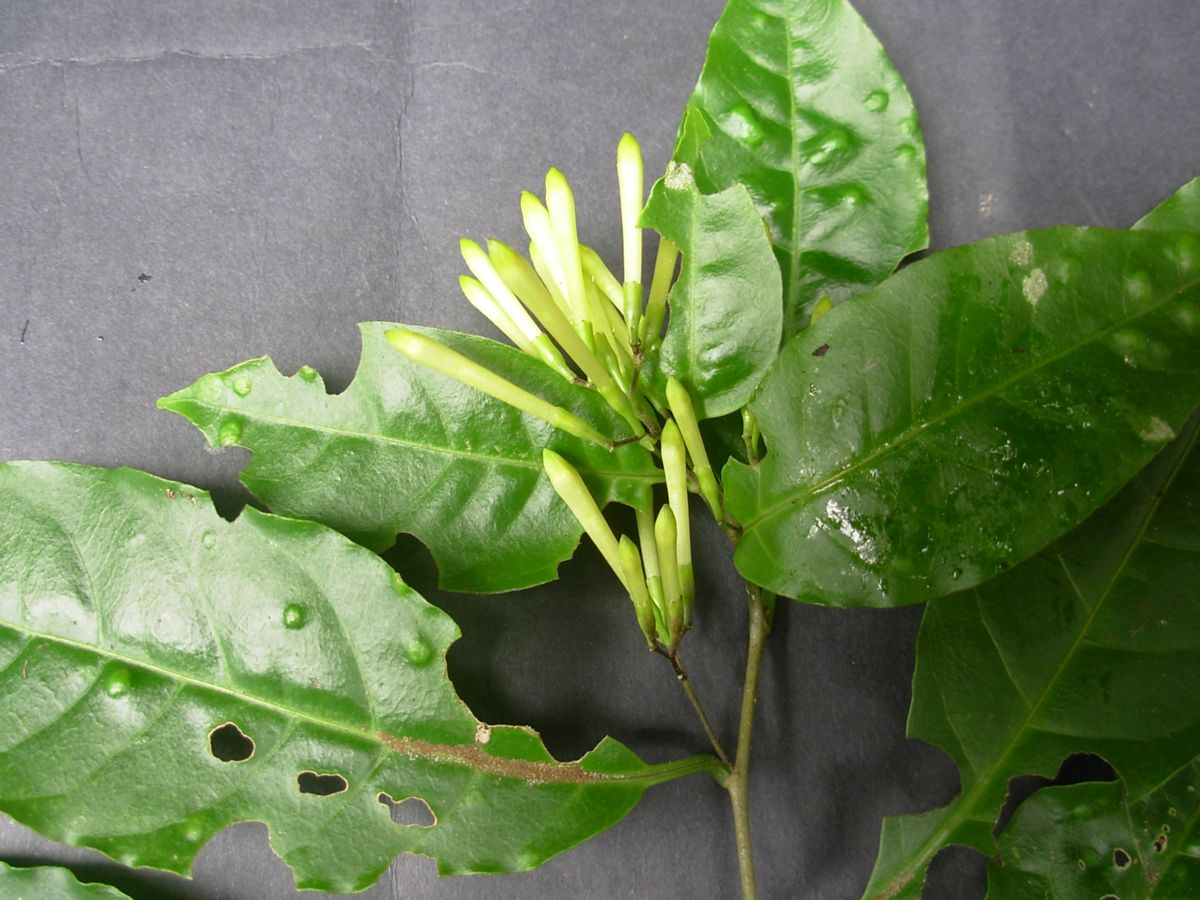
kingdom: Plantae
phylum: Tracheophyta
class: Liliopsida
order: Asparagales
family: Orchidaceae
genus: Prosthechea
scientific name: Prosthechea michuacana
